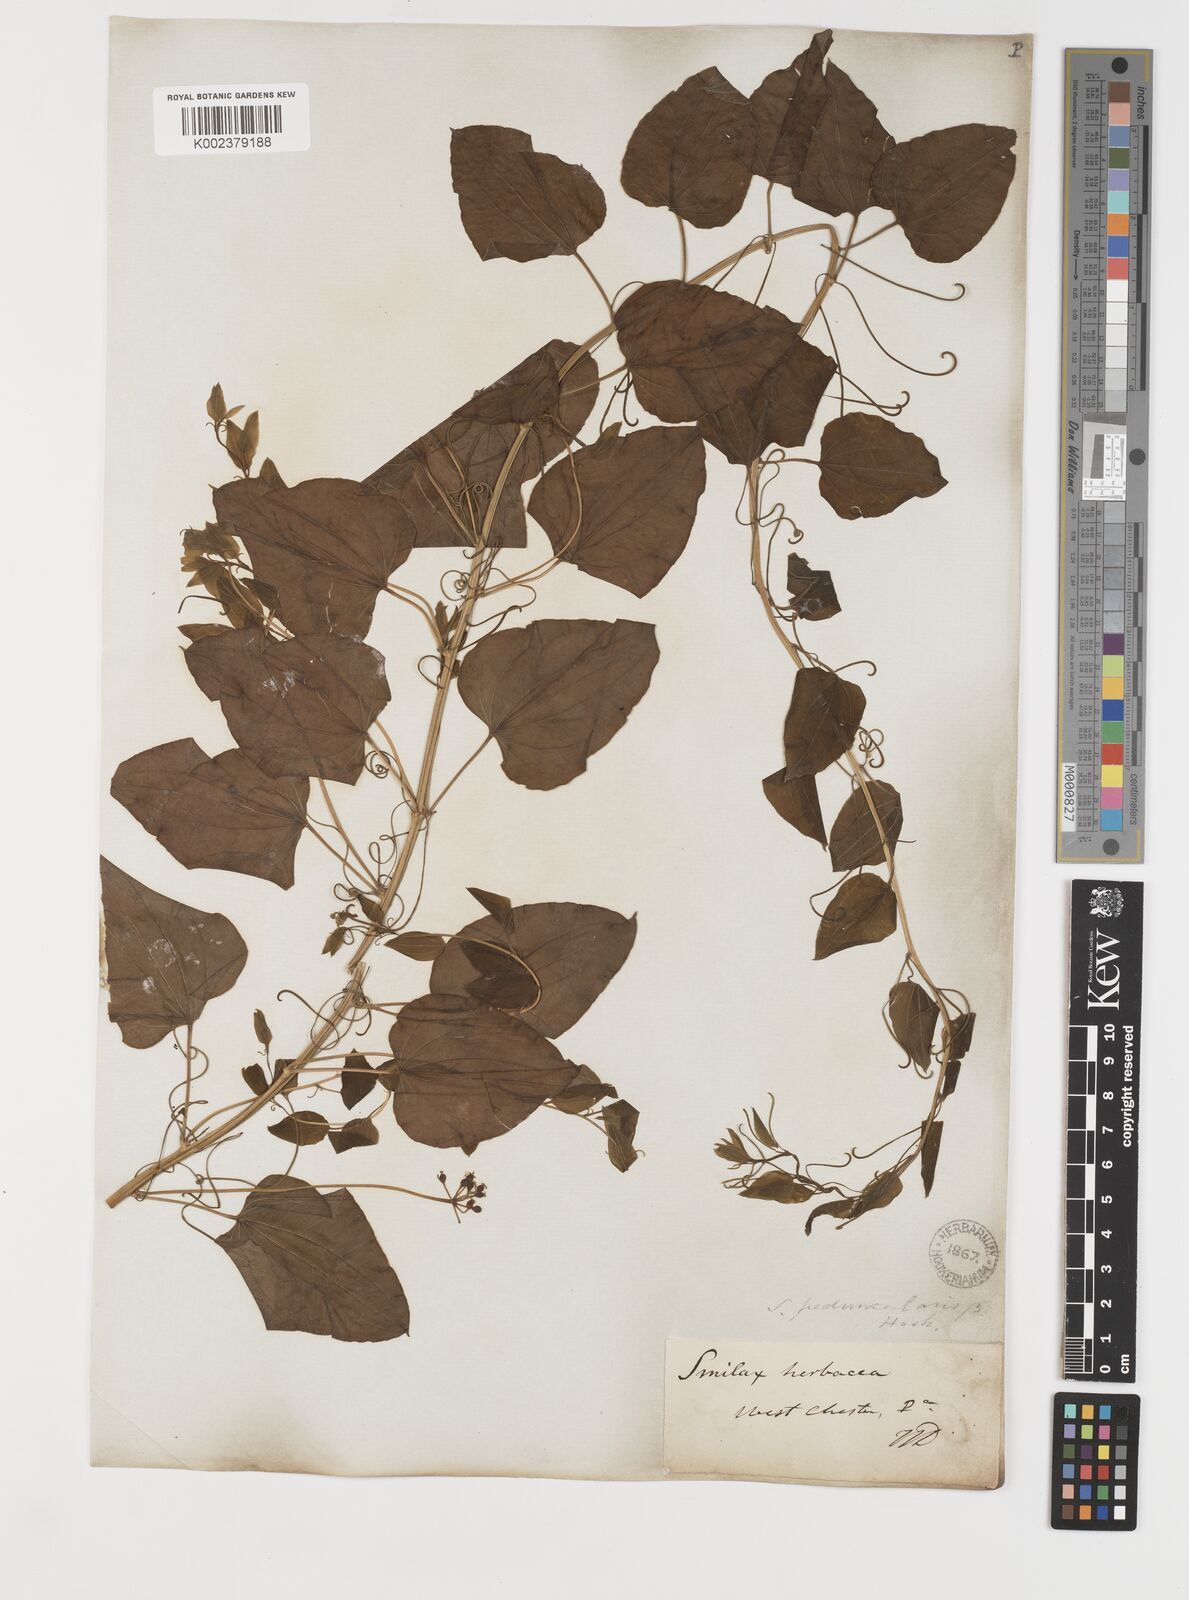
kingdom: Plantae
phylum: Tracheophyta
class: Liliopsida
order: Liliales
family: Smilacaceae
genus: Smilax
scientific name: Smilax
